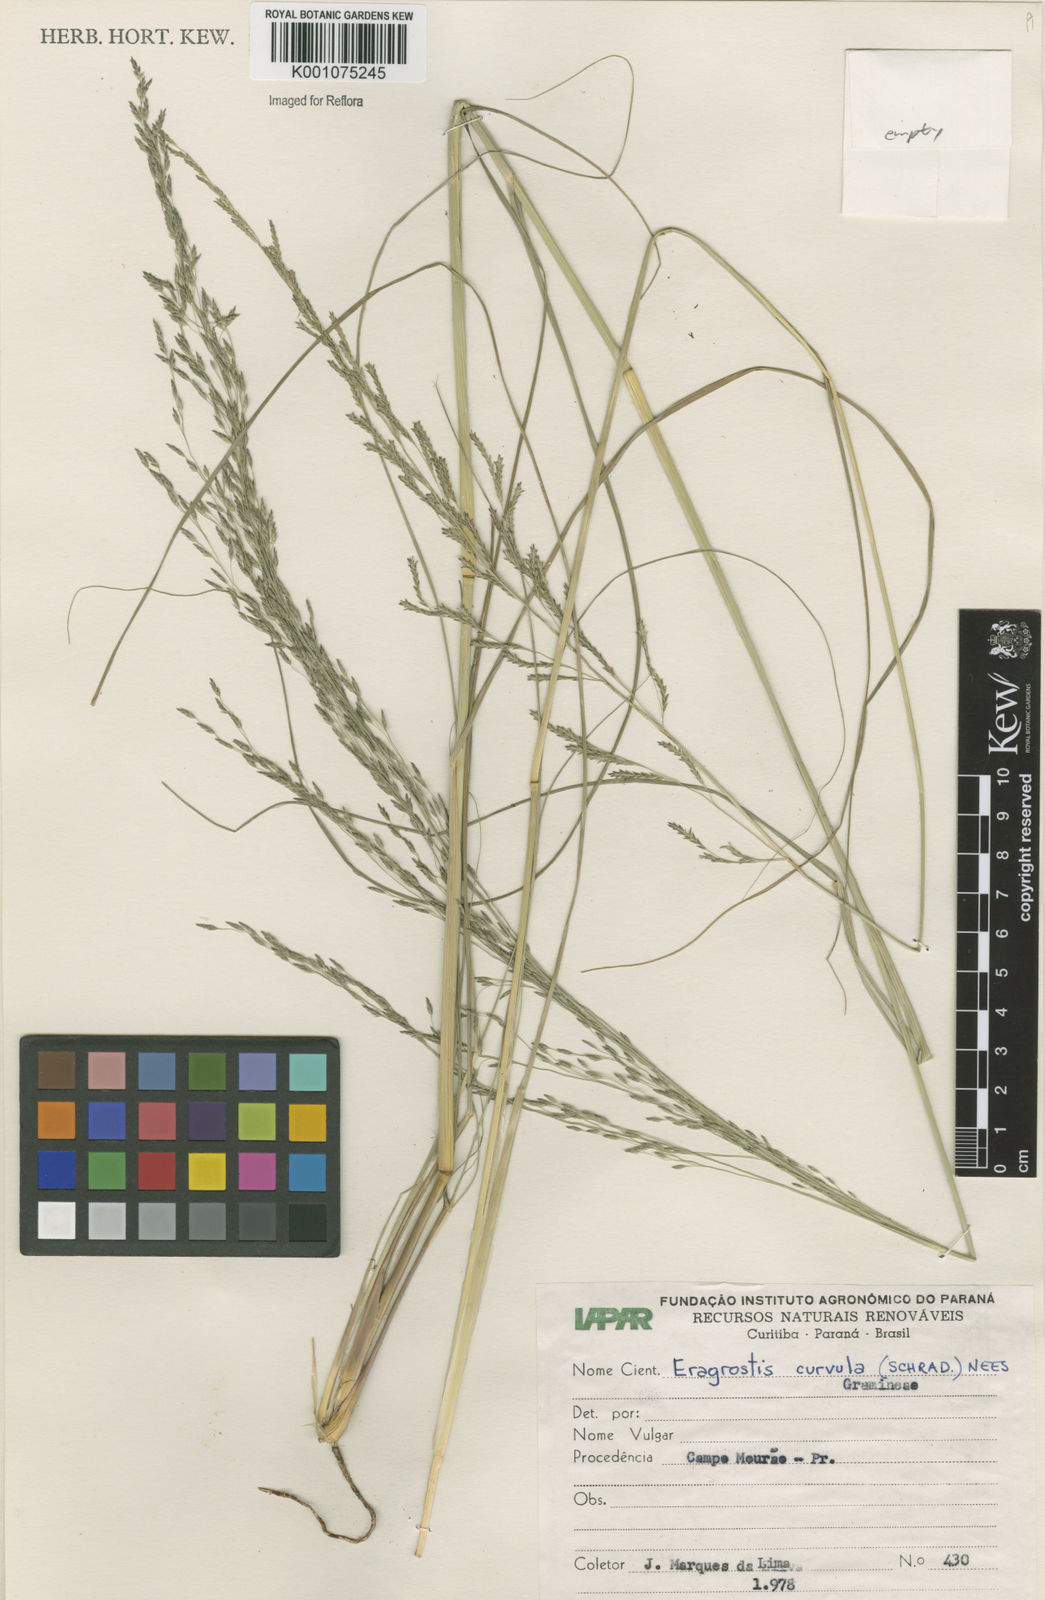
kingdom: Plantae
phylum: Tracheophyta
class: Liliopsida
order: Poales
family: Poaceae
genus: Eragrostis
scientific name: Eragrostis curvula
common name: African love-grass
